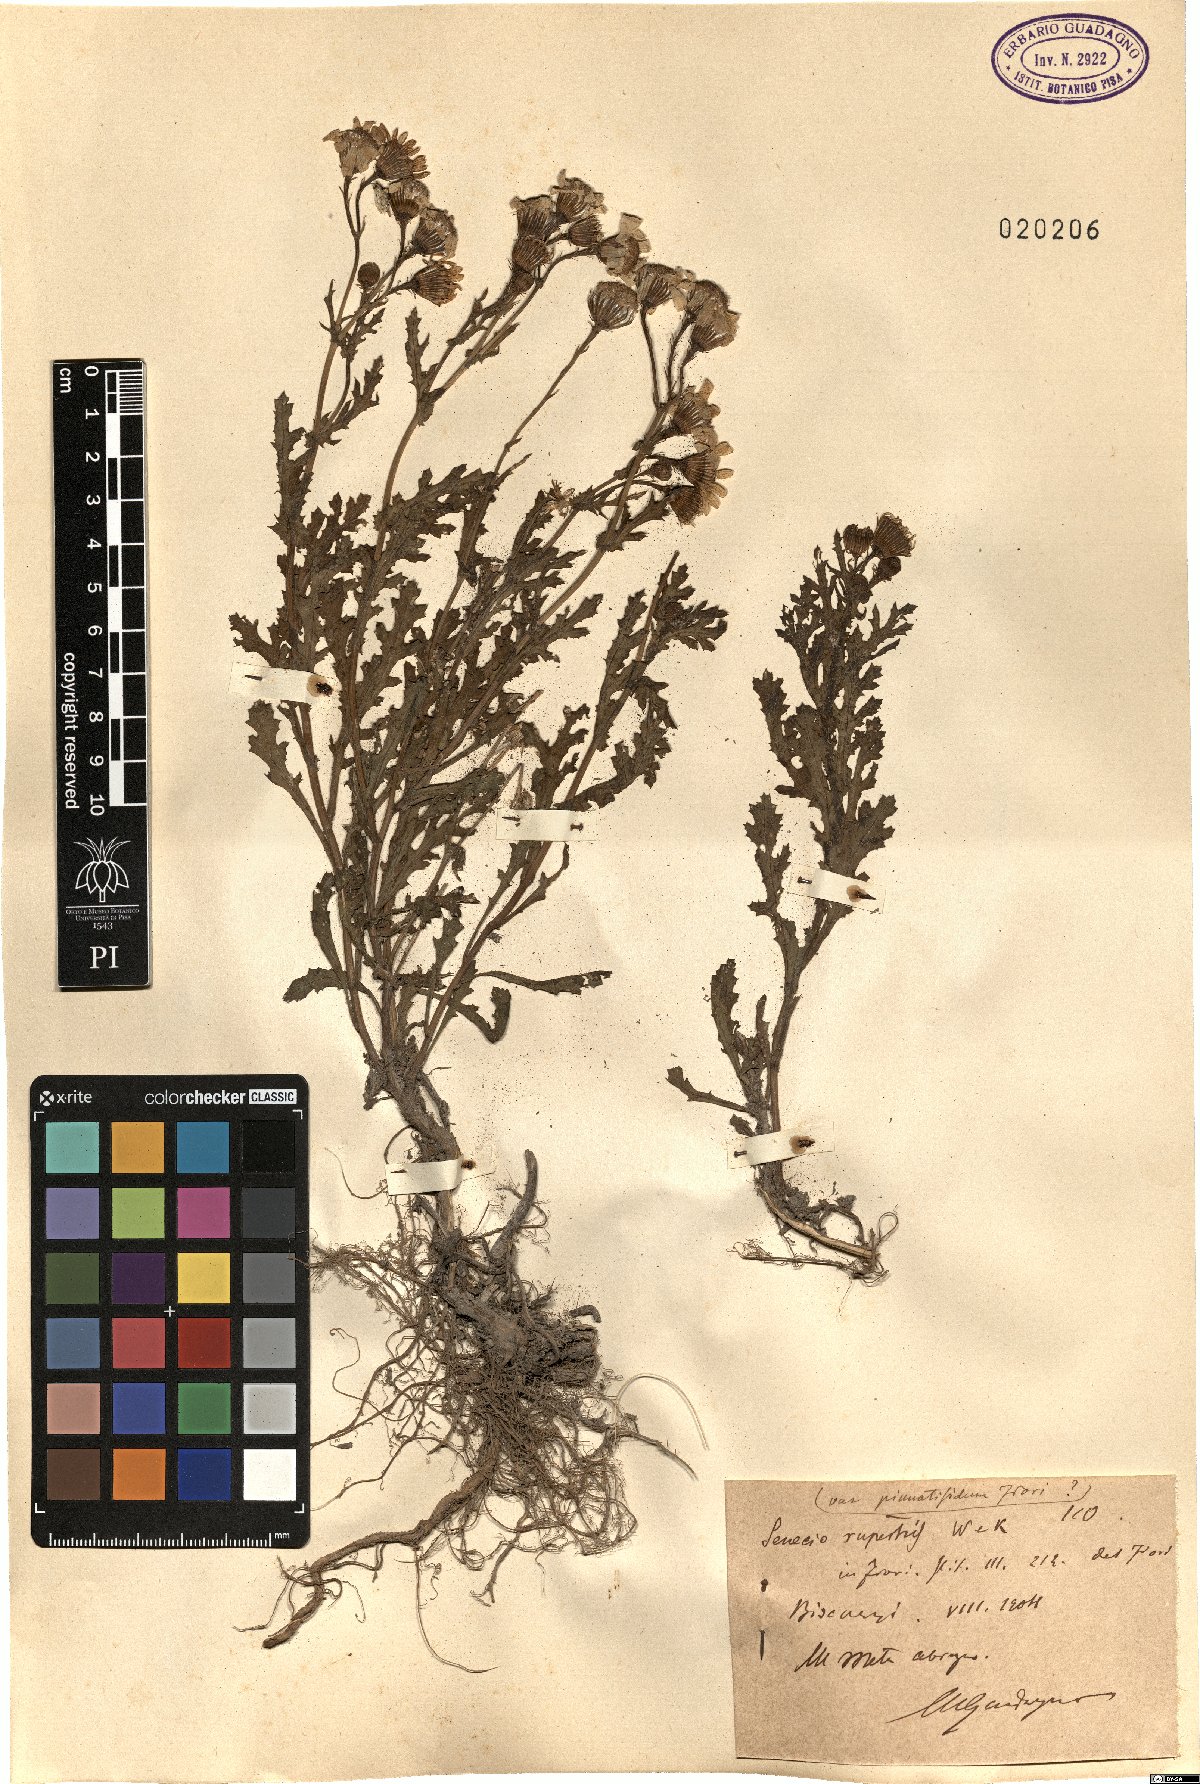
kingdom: Plantae
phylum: Tracheophyta
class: Magnoliopsida
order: Asterales
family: Asteraceae
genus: Senecio
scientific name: Senecio rupestris
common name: Rock ragwort
